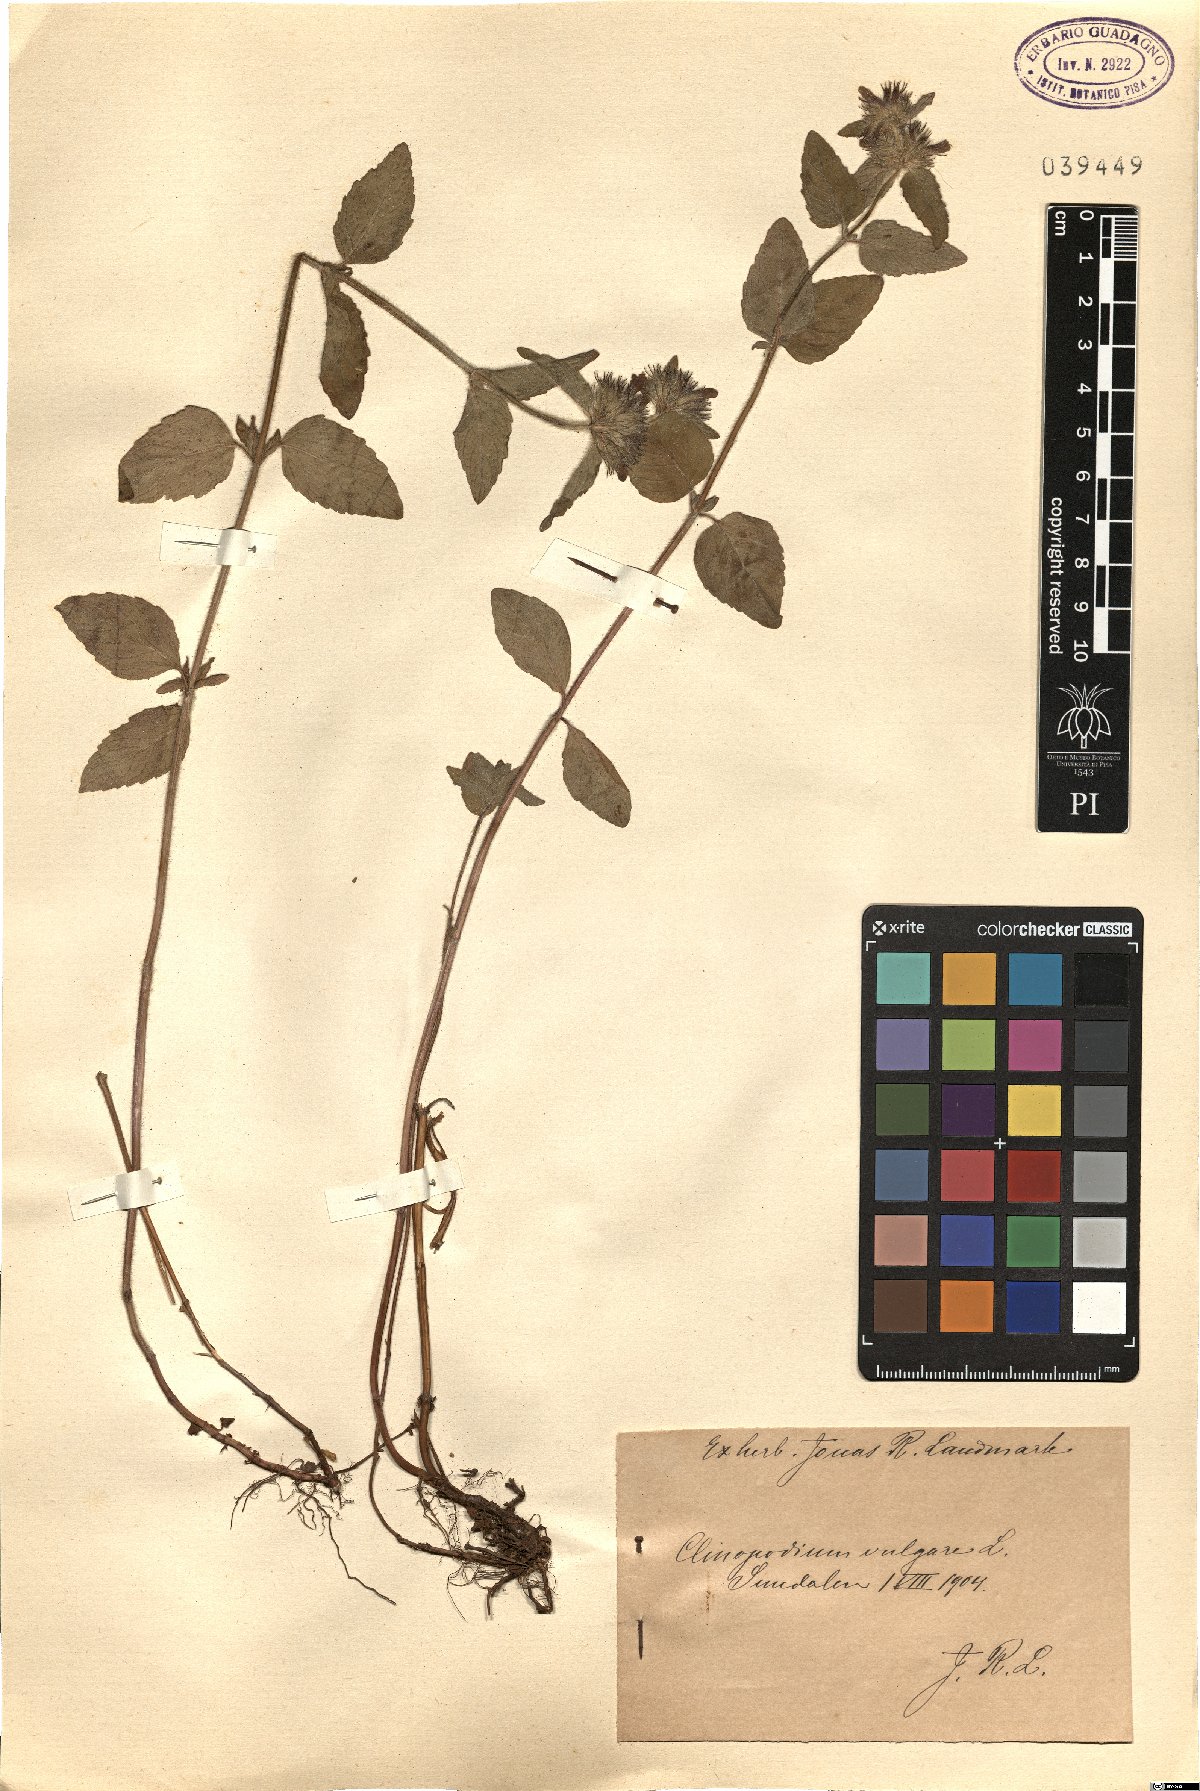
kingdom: Plantae
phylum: Tracheophyta
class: Magnoliopsida
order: Lamiales
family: Lamiaceae
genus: Clinopodium
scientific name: Clinopodium vulgare
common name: Wild basil
